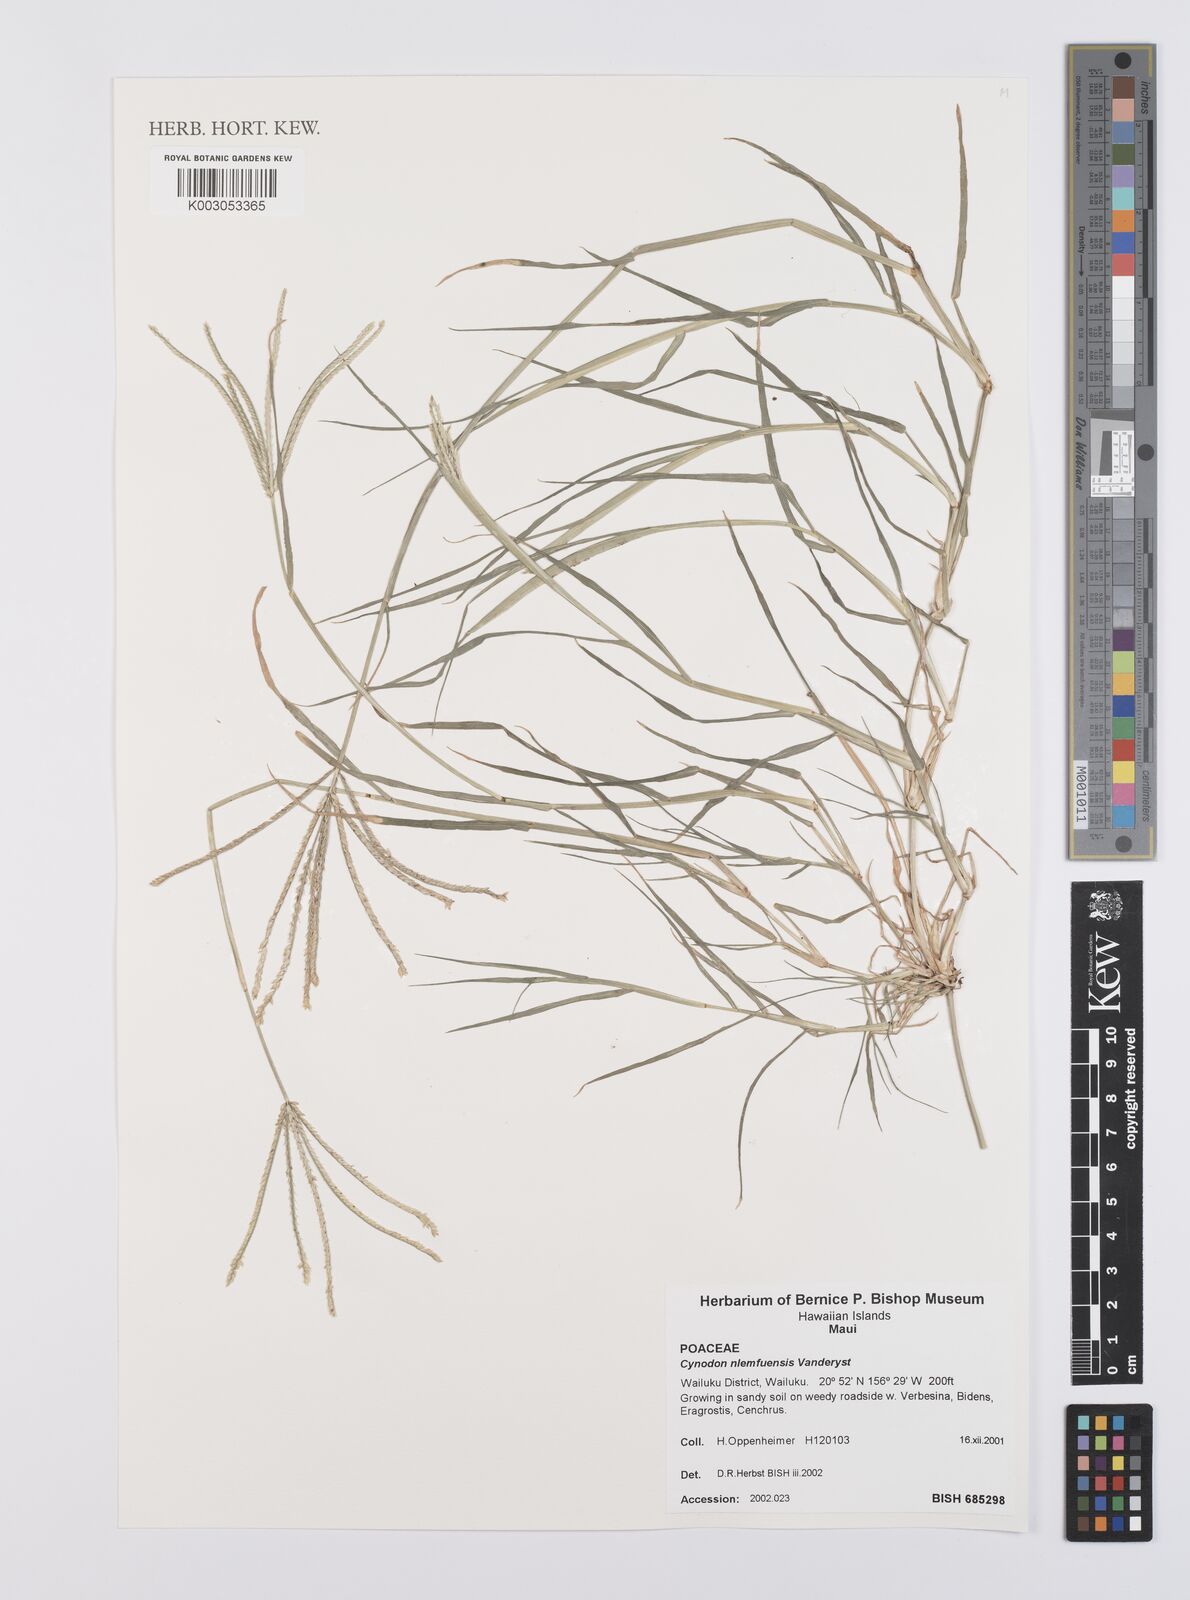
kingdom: Plantae
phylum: Tracheophyta
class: Liliopsida
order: Poales
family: Poaceae
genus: Cynodon
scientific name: Cynodon nlemfuensis
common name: African bermudagrass
